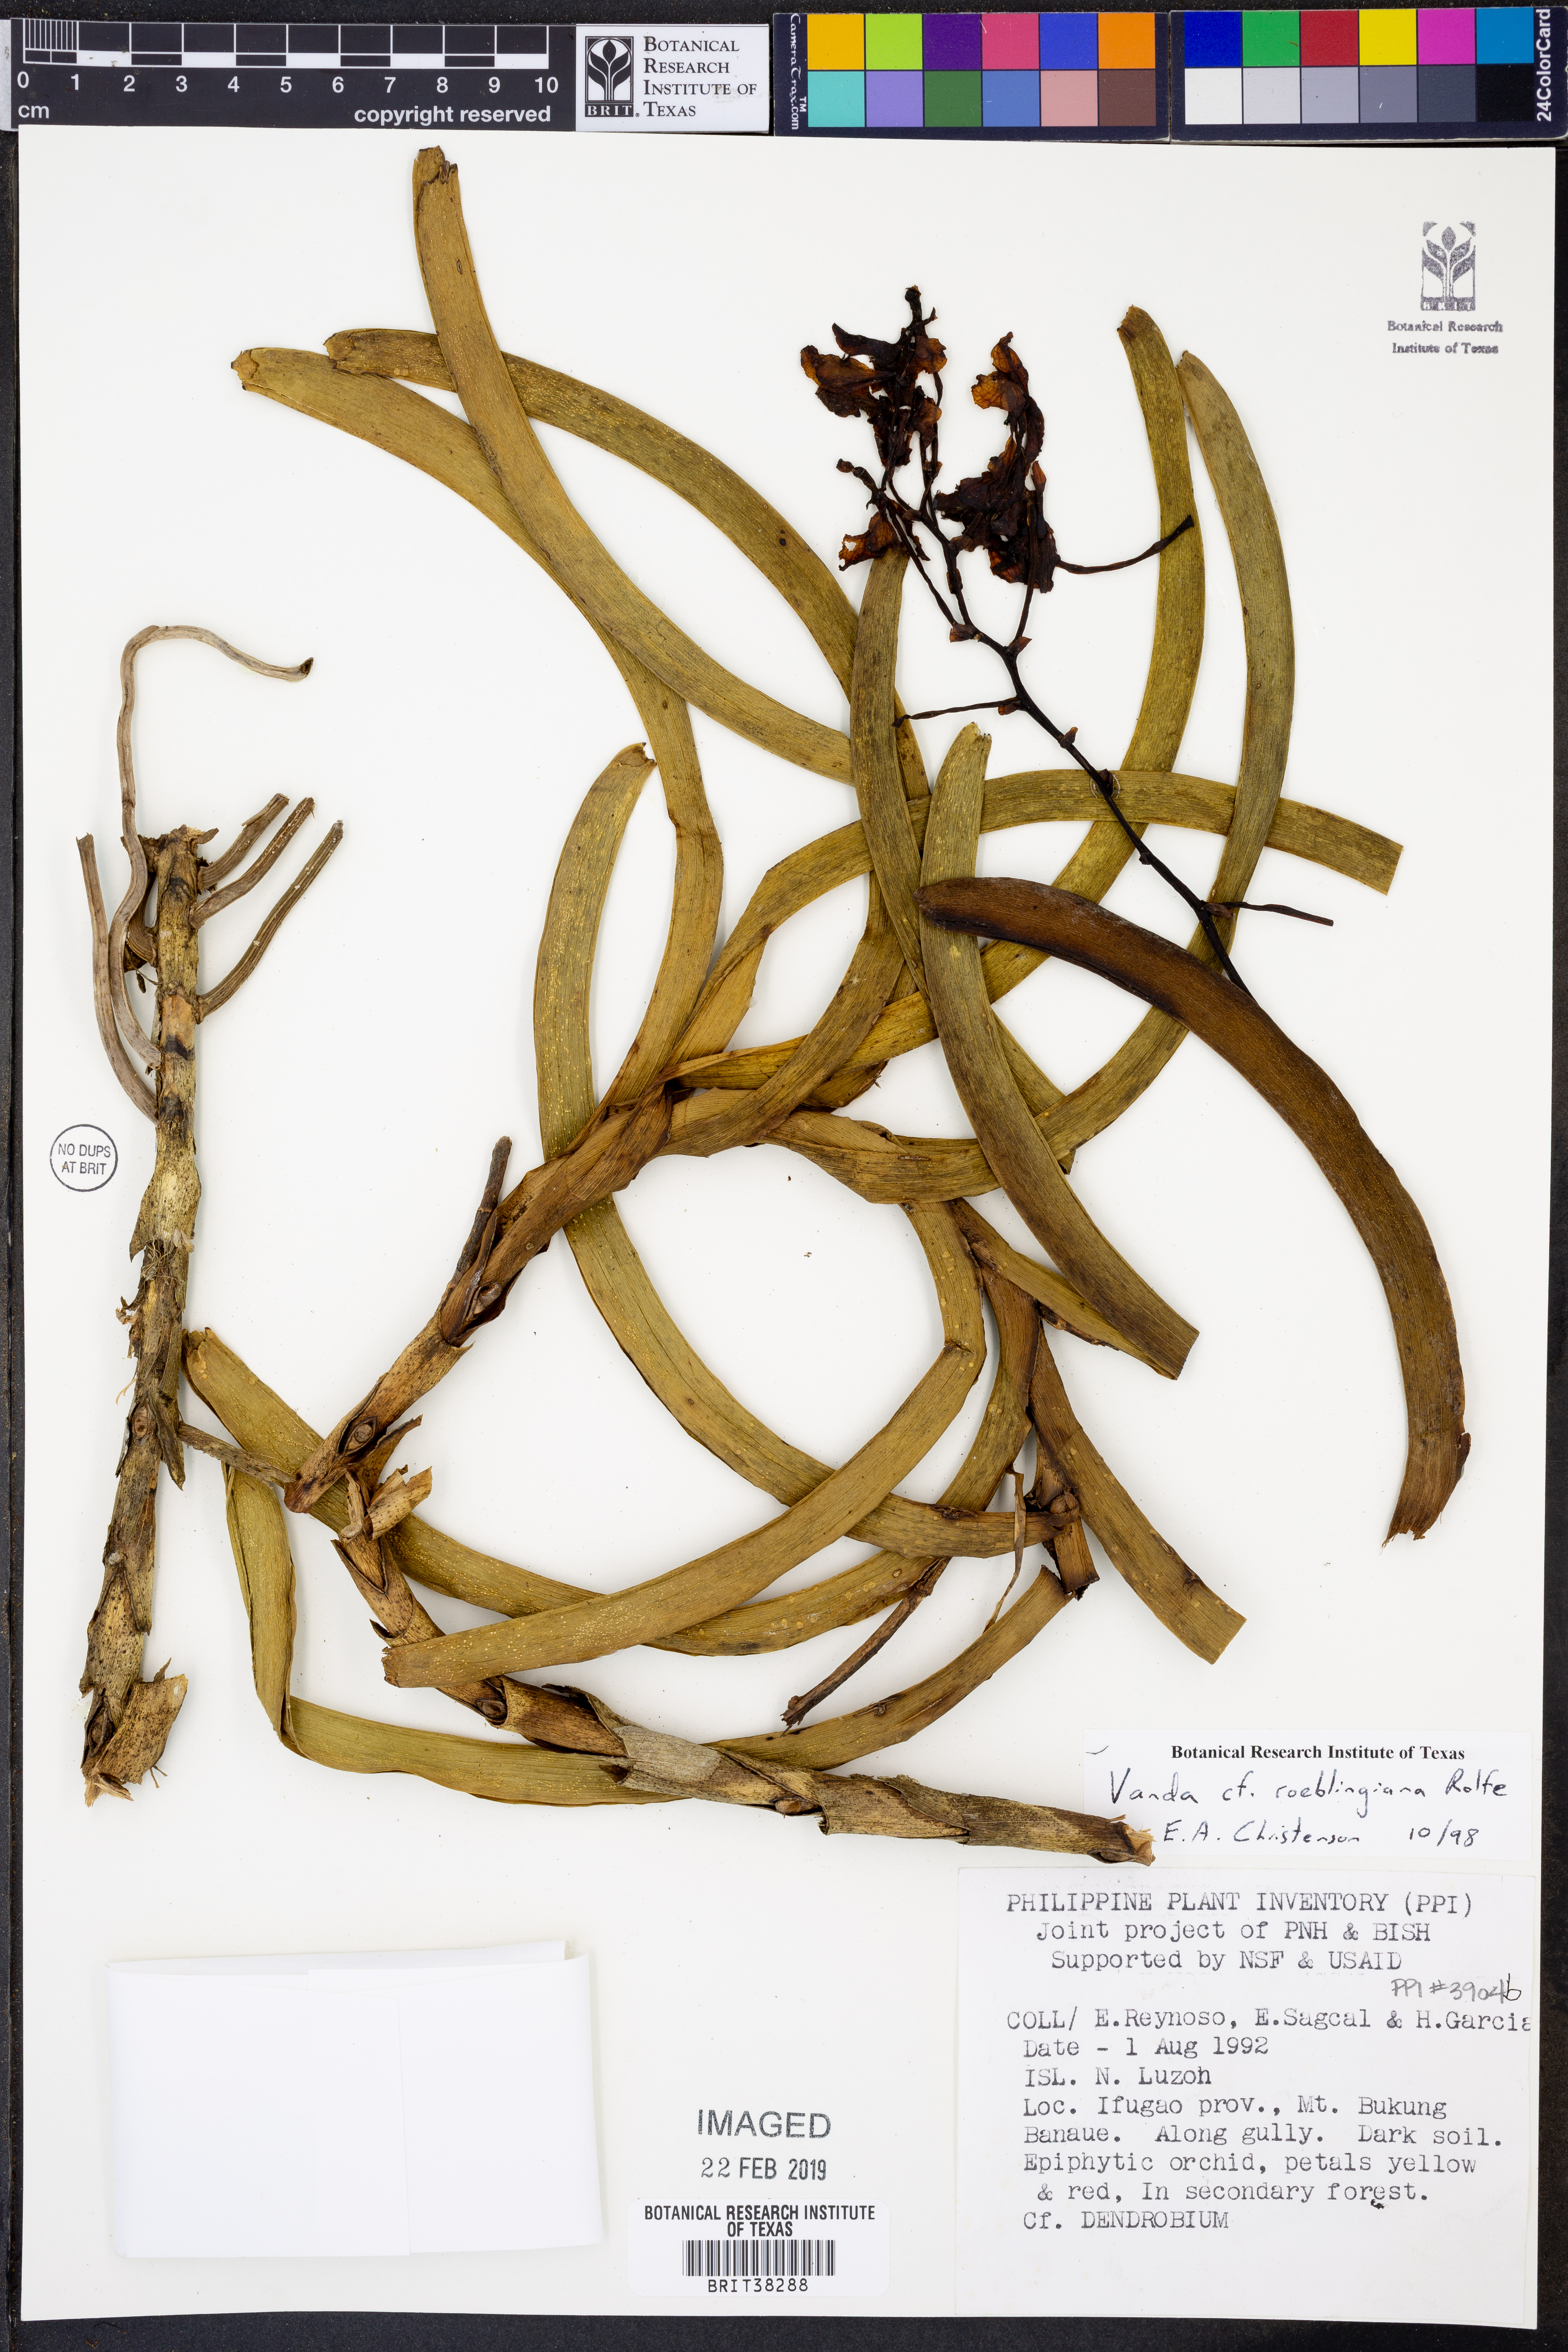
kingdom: Plantae
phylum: Tracheophyta
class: Liliopsida
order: Asparagales
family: Orchidaceae
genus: Vanda
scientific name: Vanda roeblingiana
